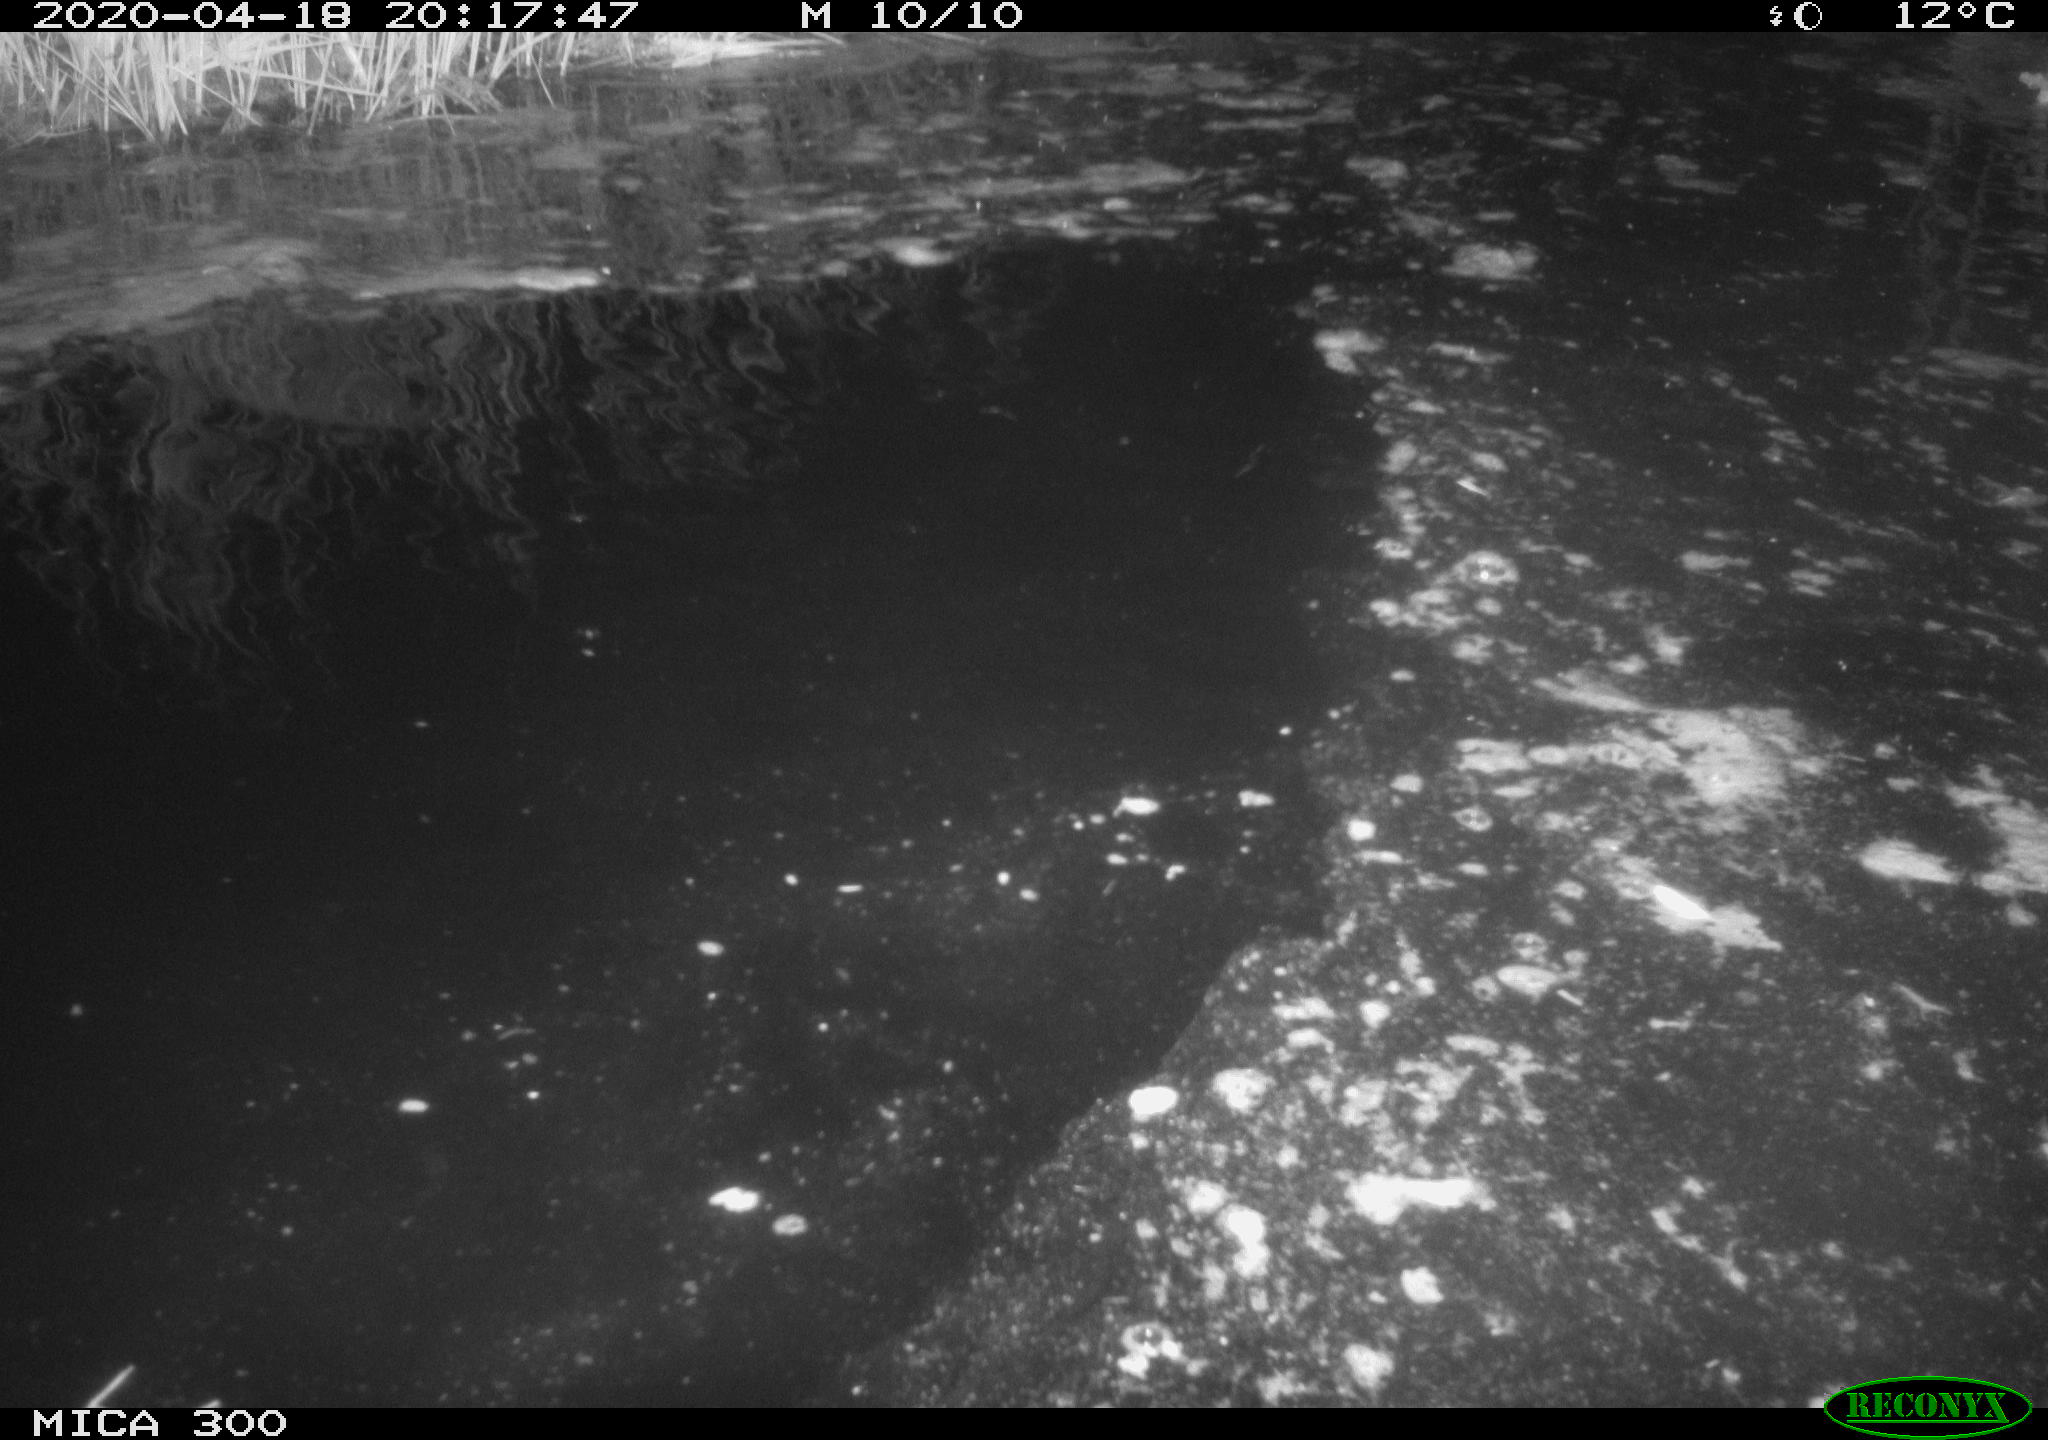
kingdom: Animalia
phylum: Chordata
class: Aves
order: Anseriformes
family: Anatidae
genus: Anas
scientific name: Anas platyrhynchos
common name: Mallard
